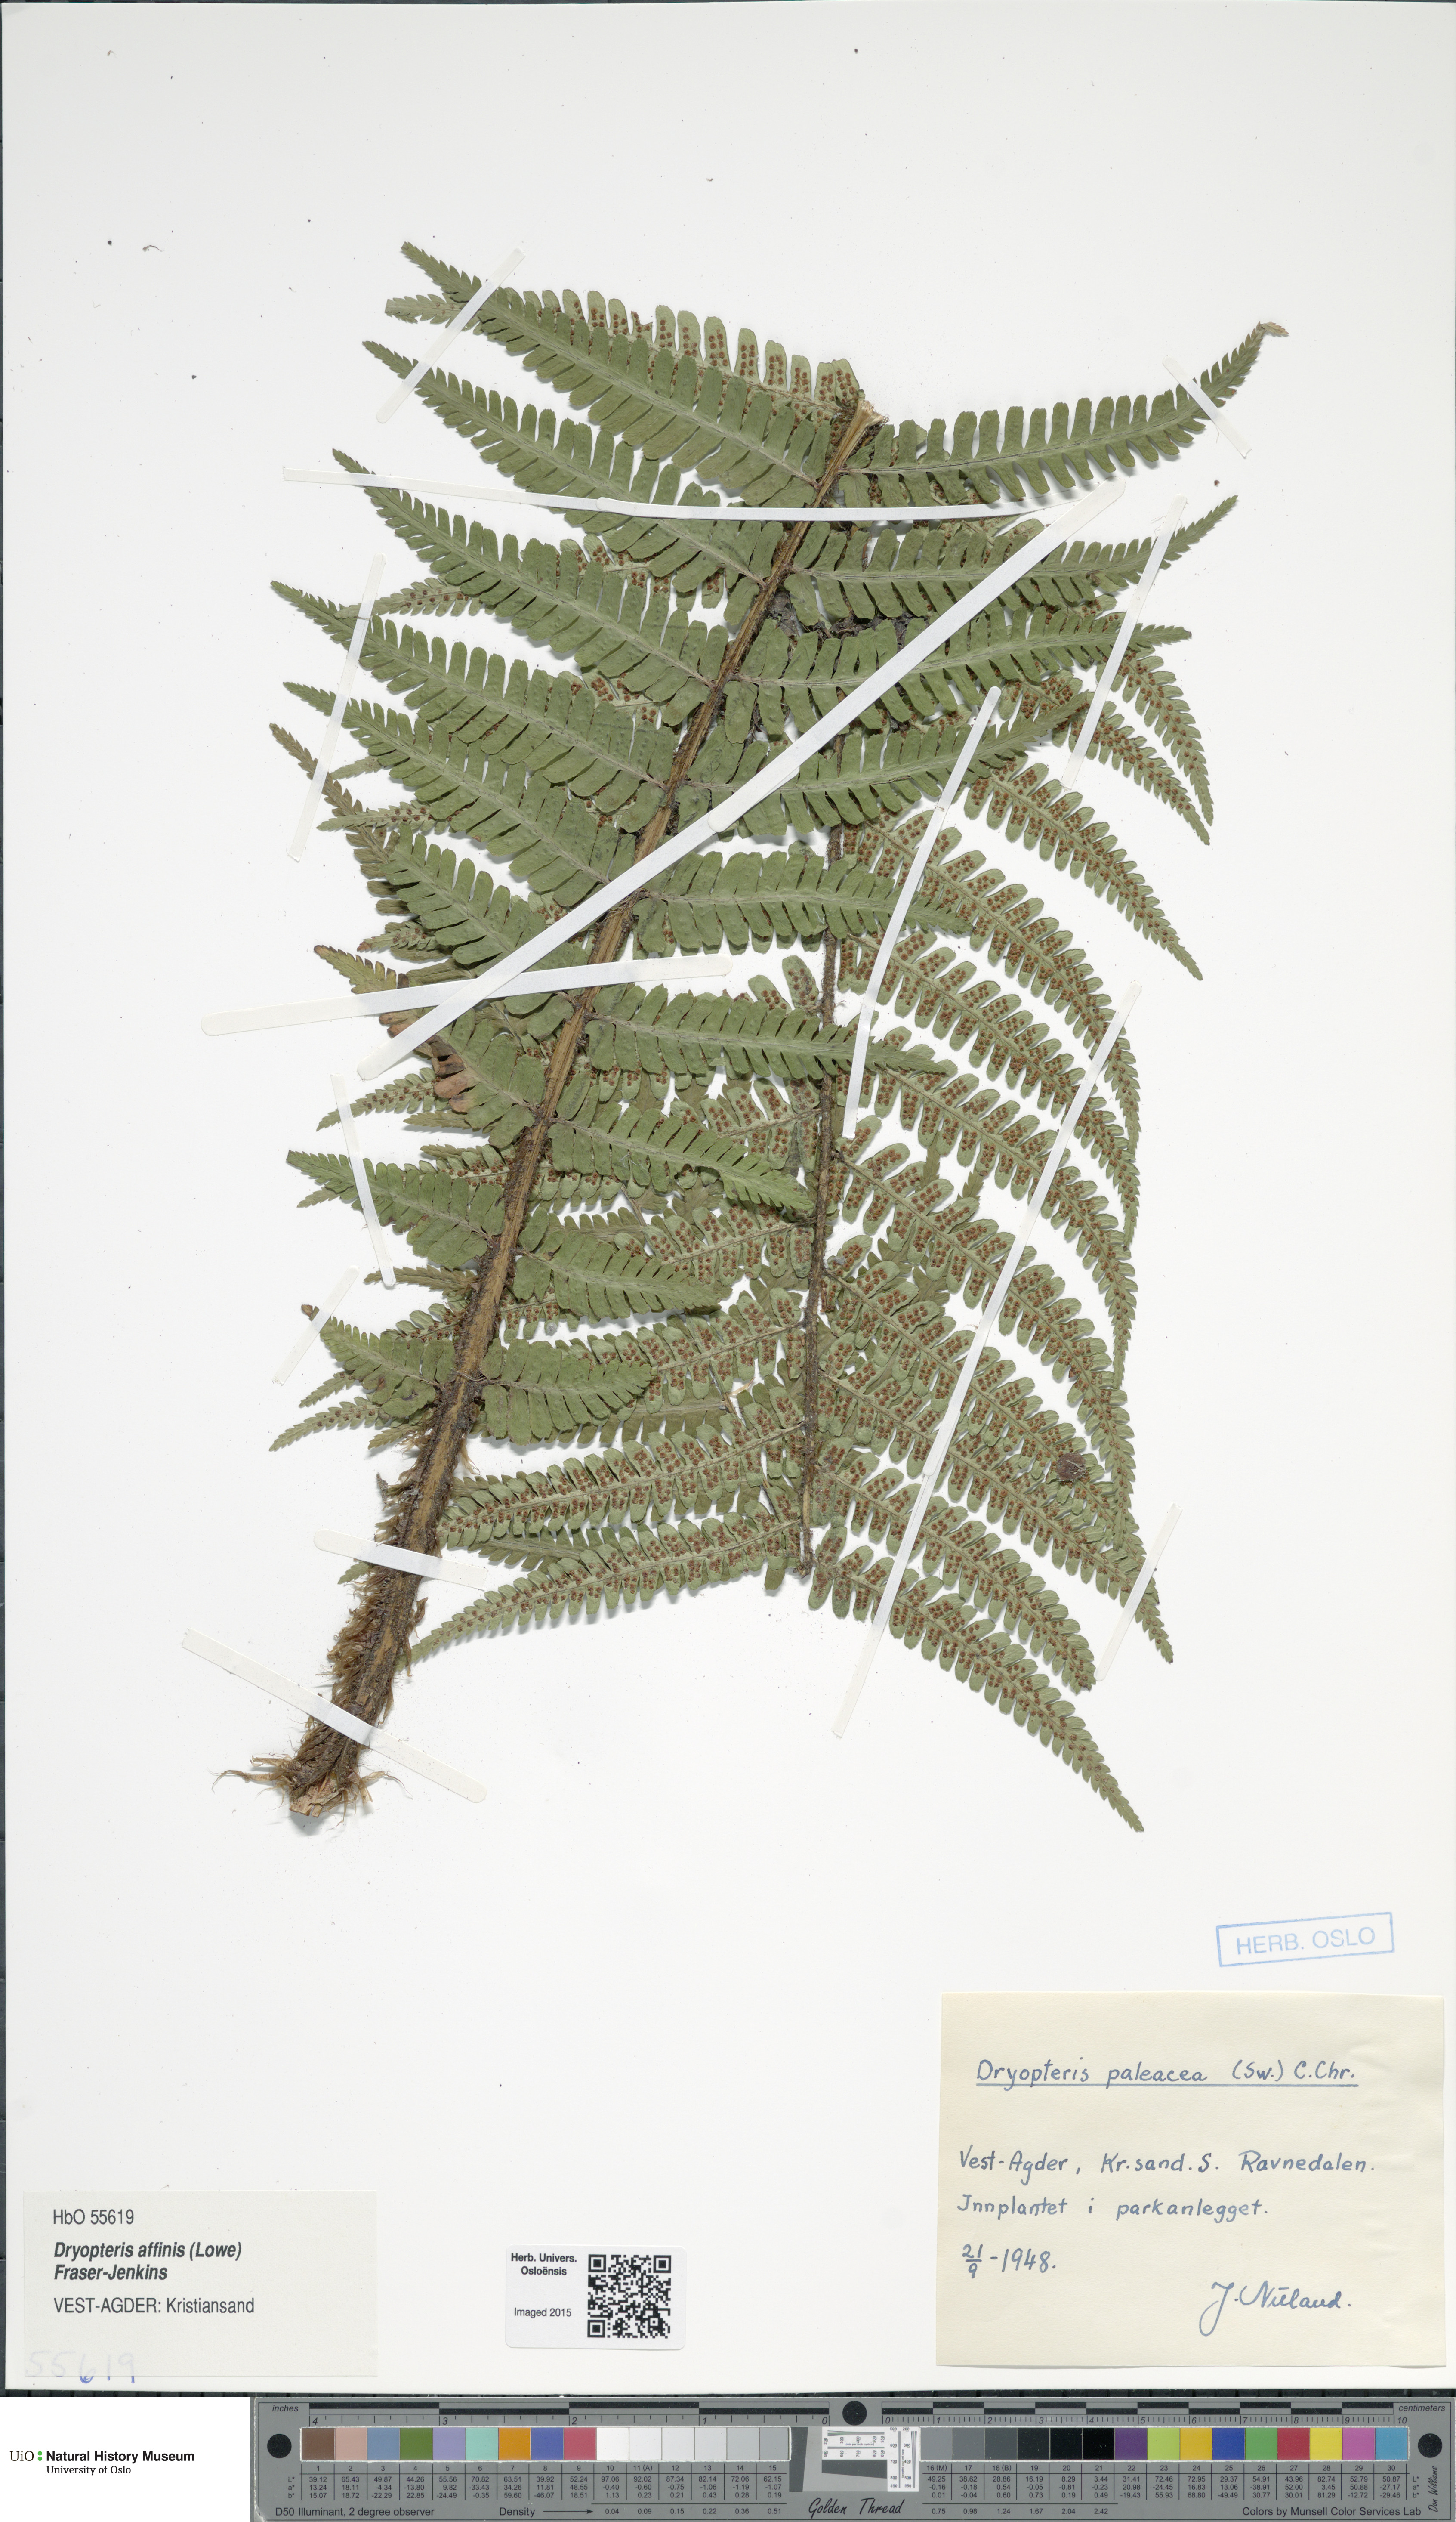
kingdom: Plantae
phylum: Tracheophyta
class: Polypodiopsida
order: Polypodiales
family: Dryopteridaceae
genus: Dryopteris
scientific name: Dryopteris wallichiana
